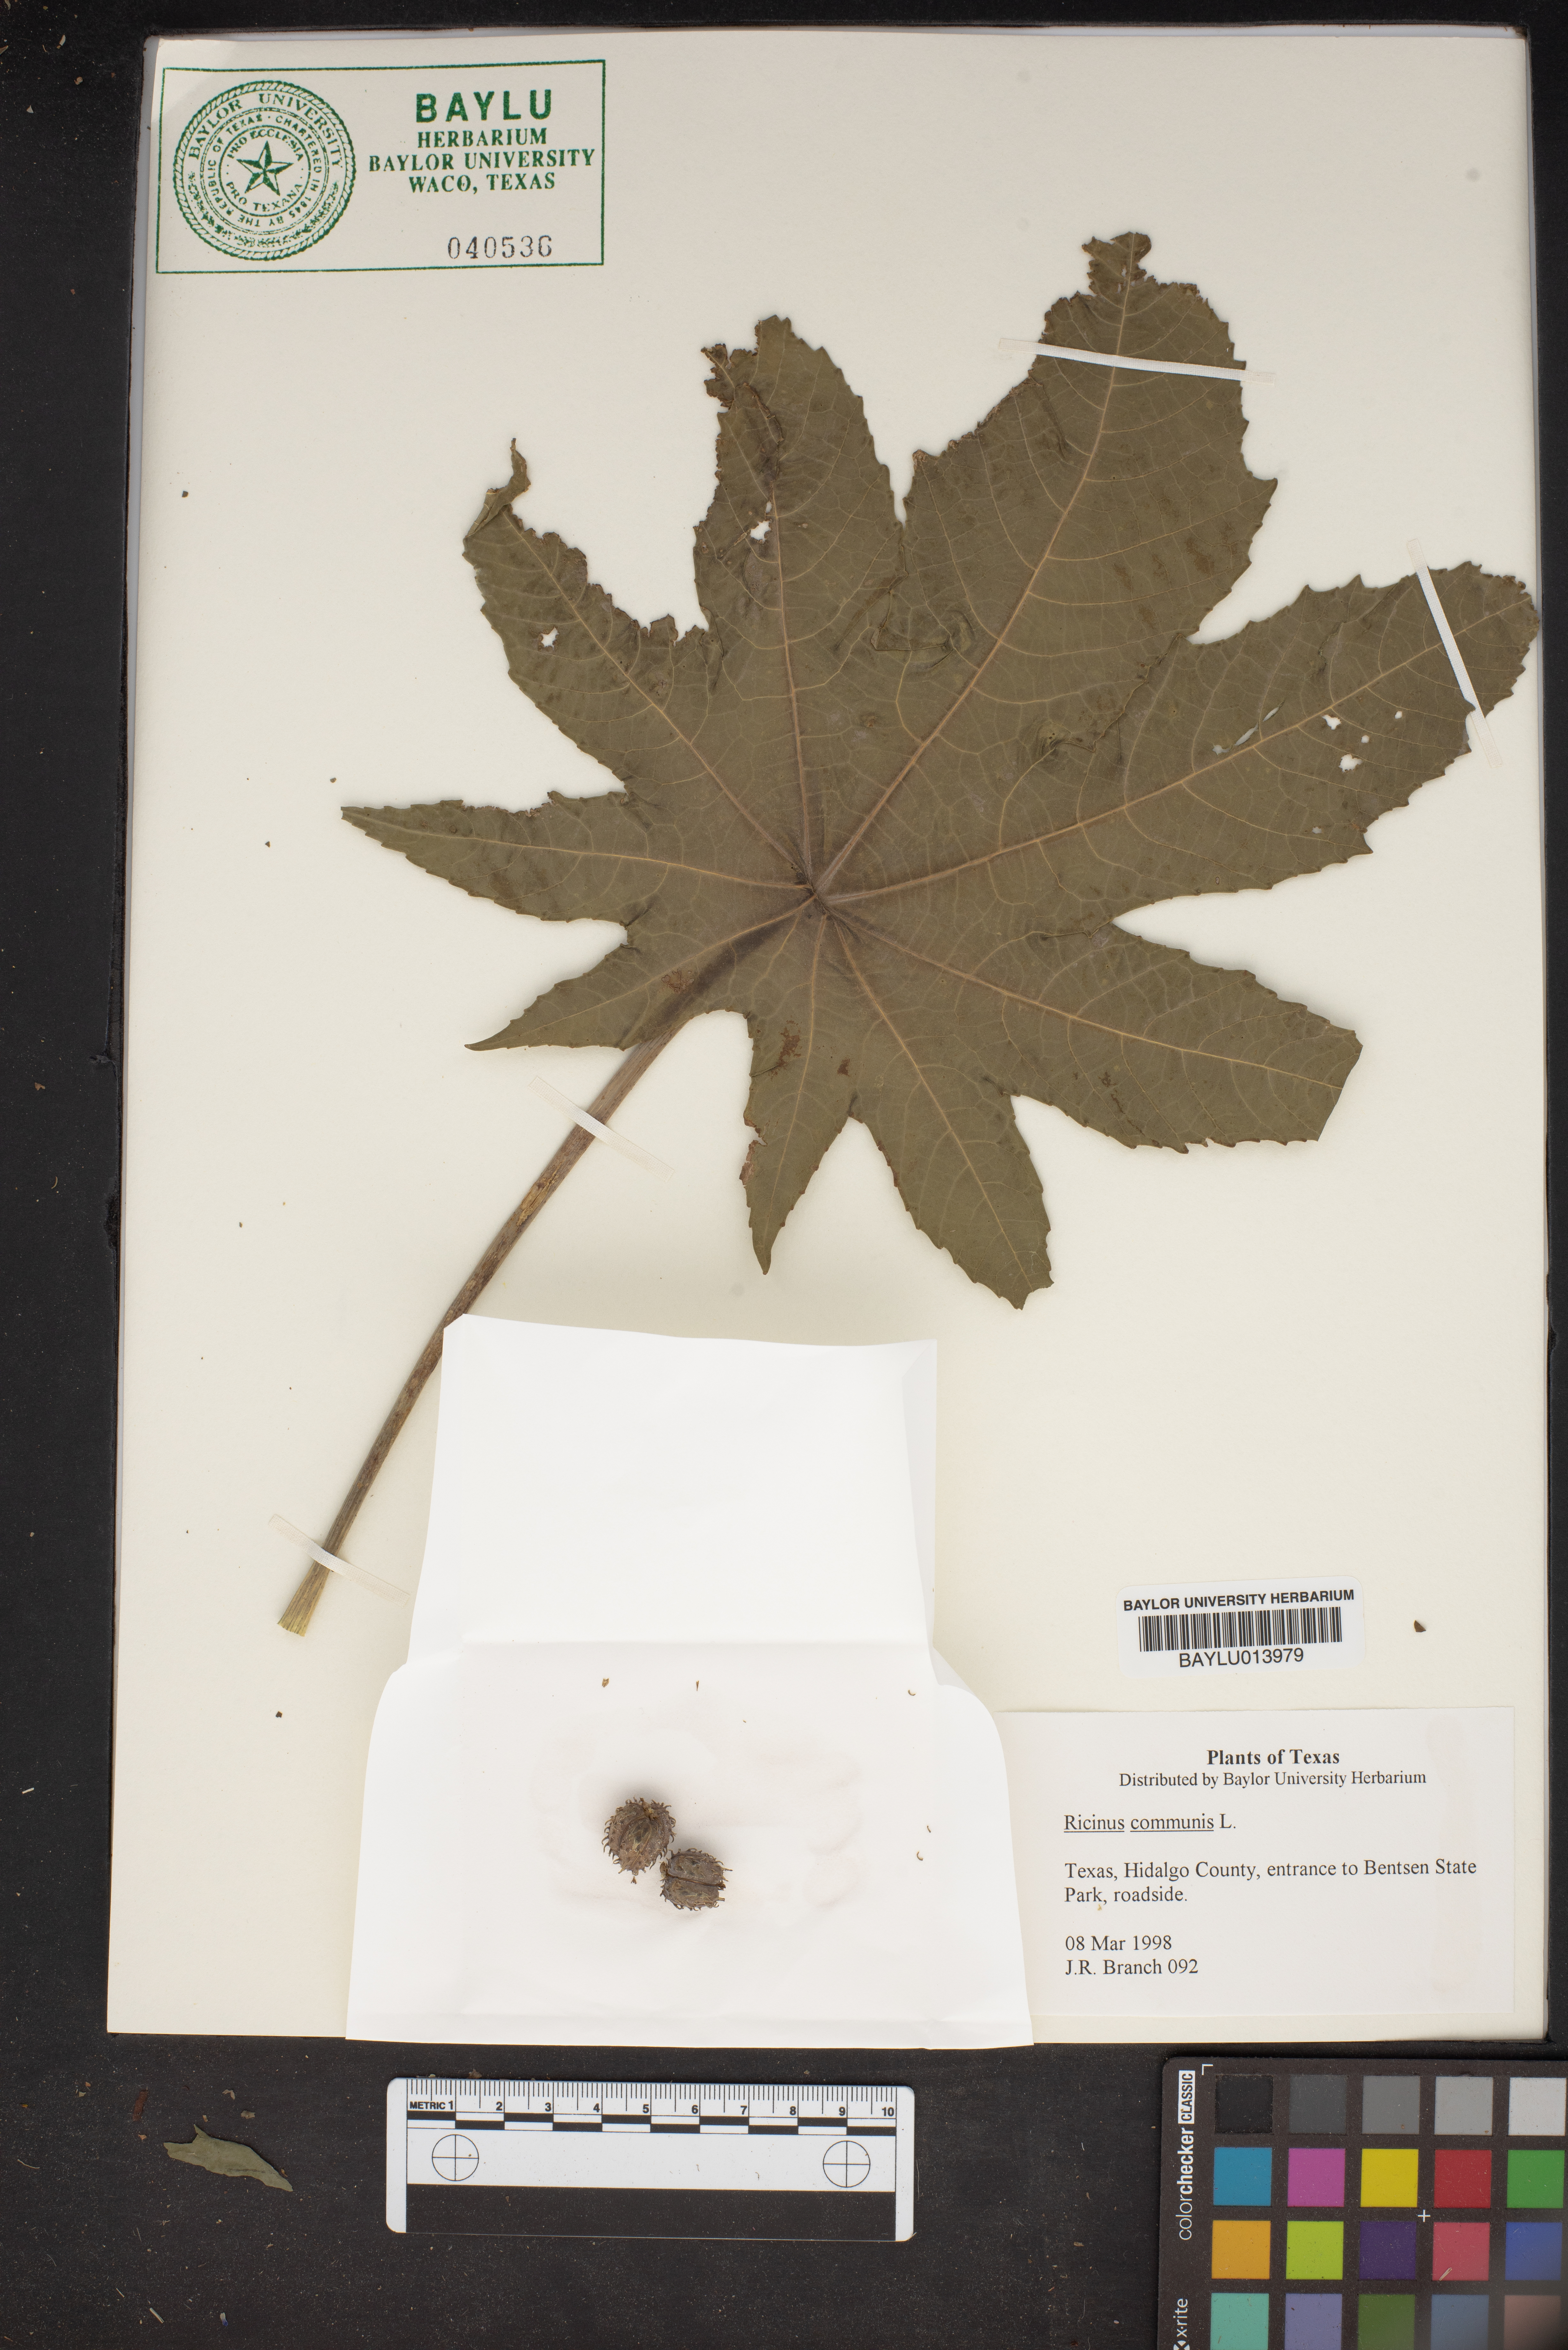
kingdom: Plantae
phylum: Tracheophyta
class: Magnoliopsida
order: Malpighiales
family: Euphorbiaceae
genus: Ricinus
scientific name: Ricinus communis
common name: Castor-oil-plant
